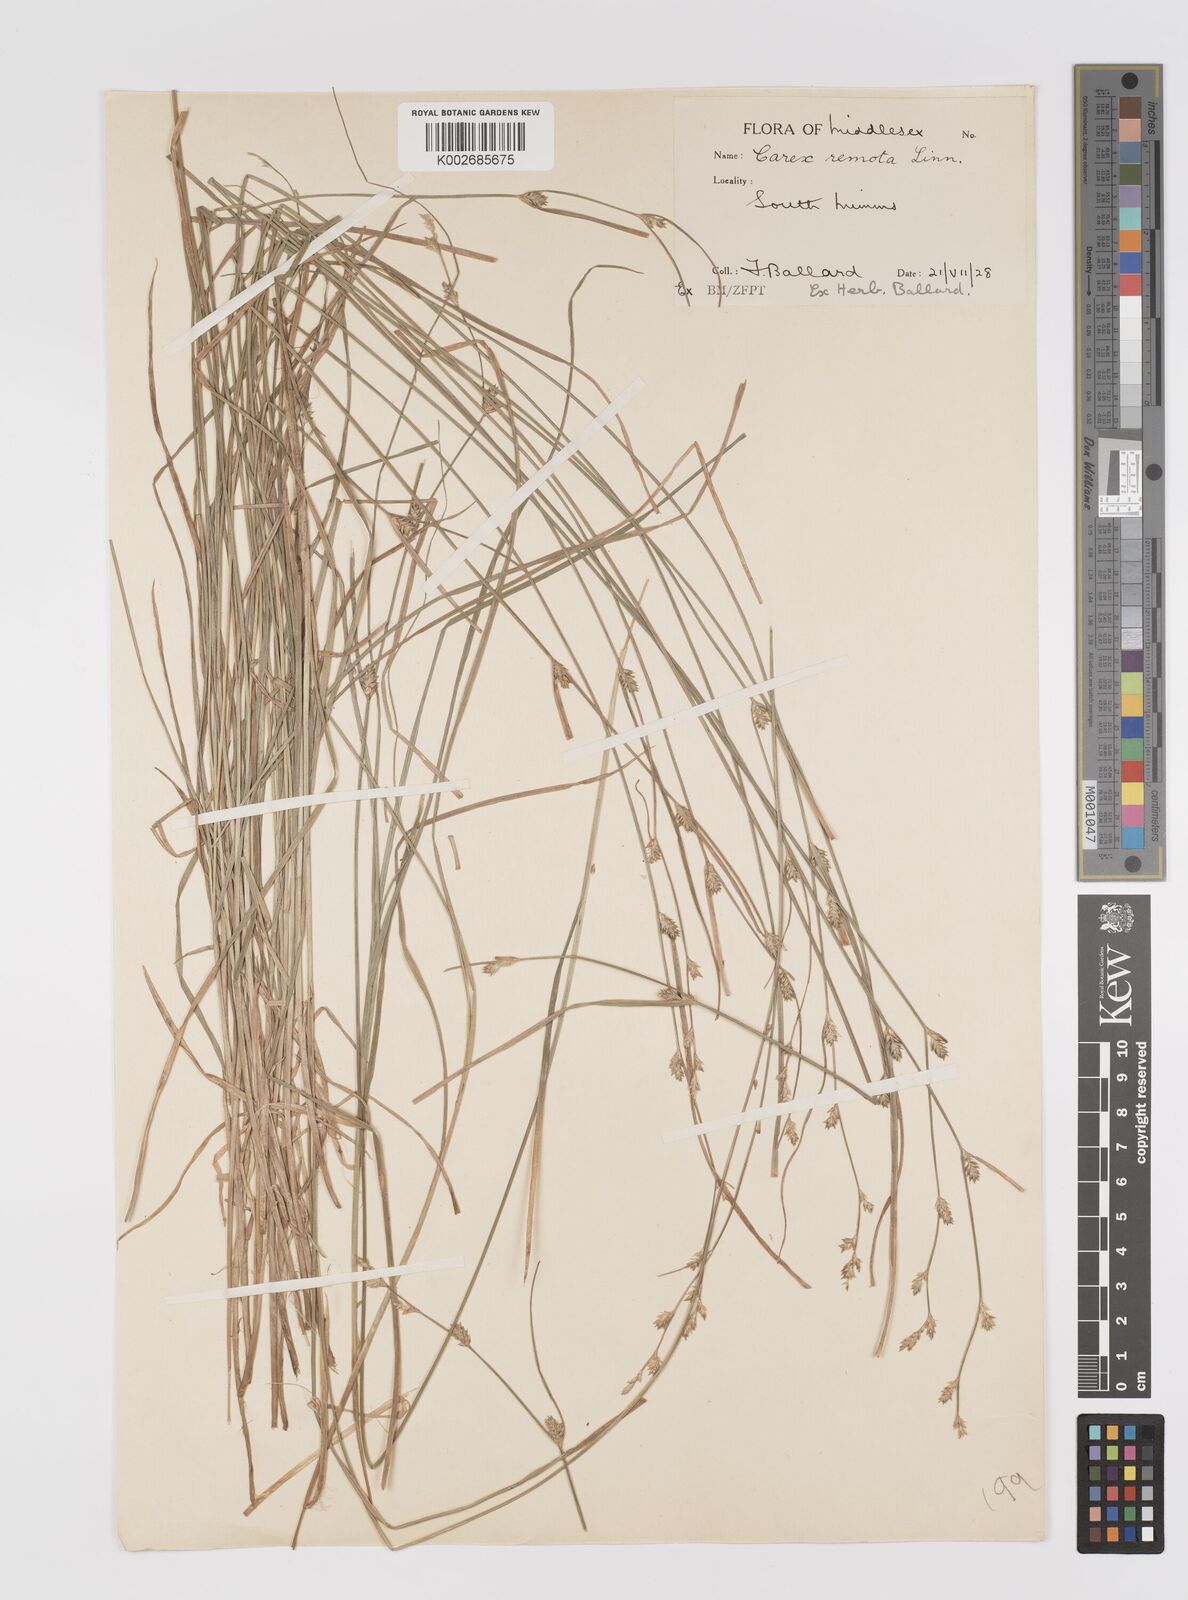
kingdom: Plantae
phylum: Tracheophyta
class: Liliopsida
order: Poales
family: Cyperaceae
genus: Carex
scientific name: Carex remota
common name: Remote sedge
